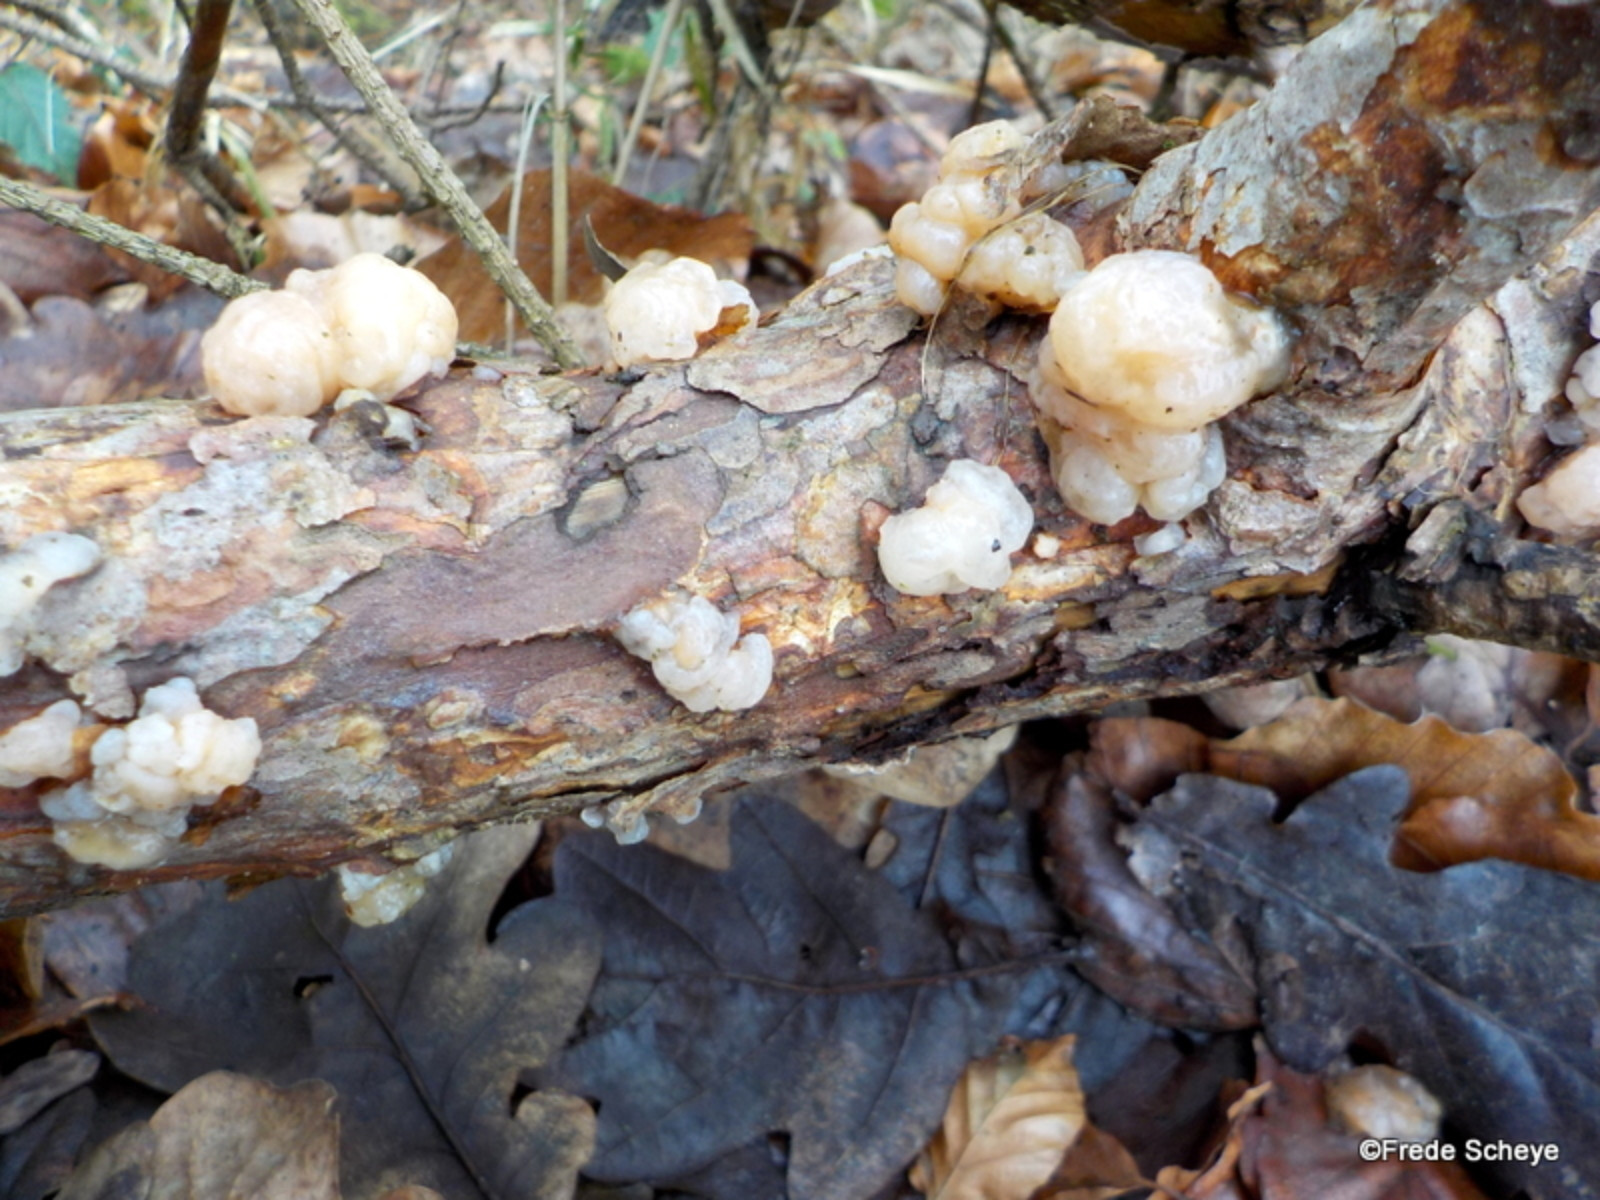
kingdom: Fungi
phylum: Basidiomycota
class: Tremellomycetes
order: Tremellales
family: Naemateliaceae
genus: Naematelia
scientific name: Naematelia encephala
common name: fyrre-bævresvamp
